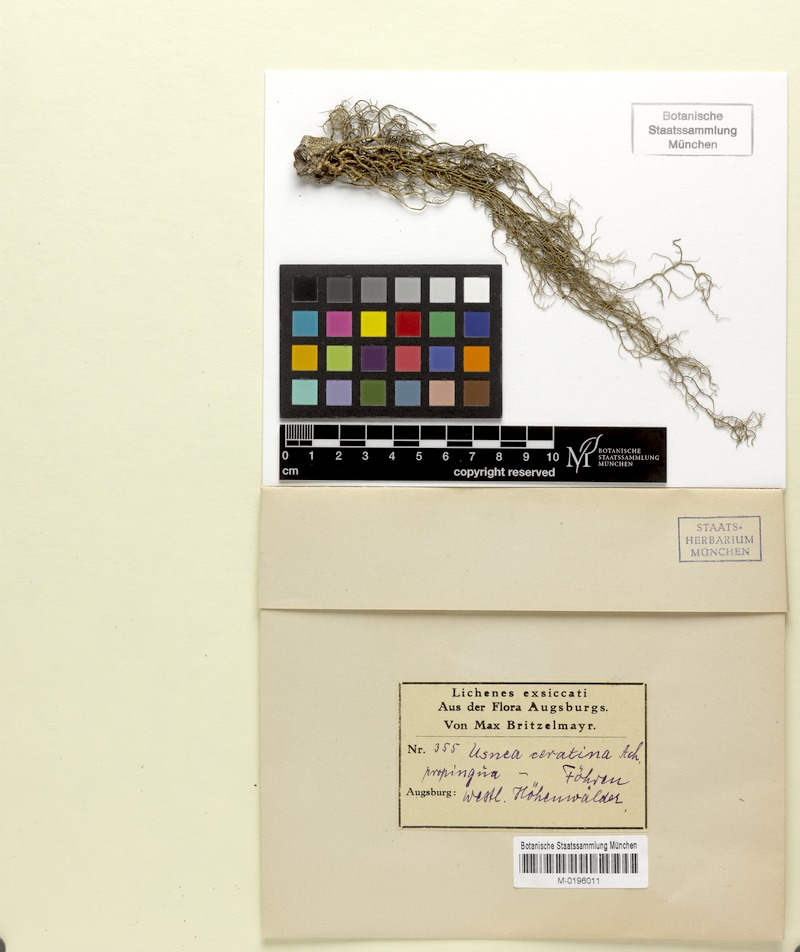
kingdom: Fungi
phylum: Ascomycota
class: Lecanoromycetes
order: Lecanorales
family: Parmeliaceae
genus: Usnea
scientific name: Usnea ceratina
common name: Warty beard lichen
